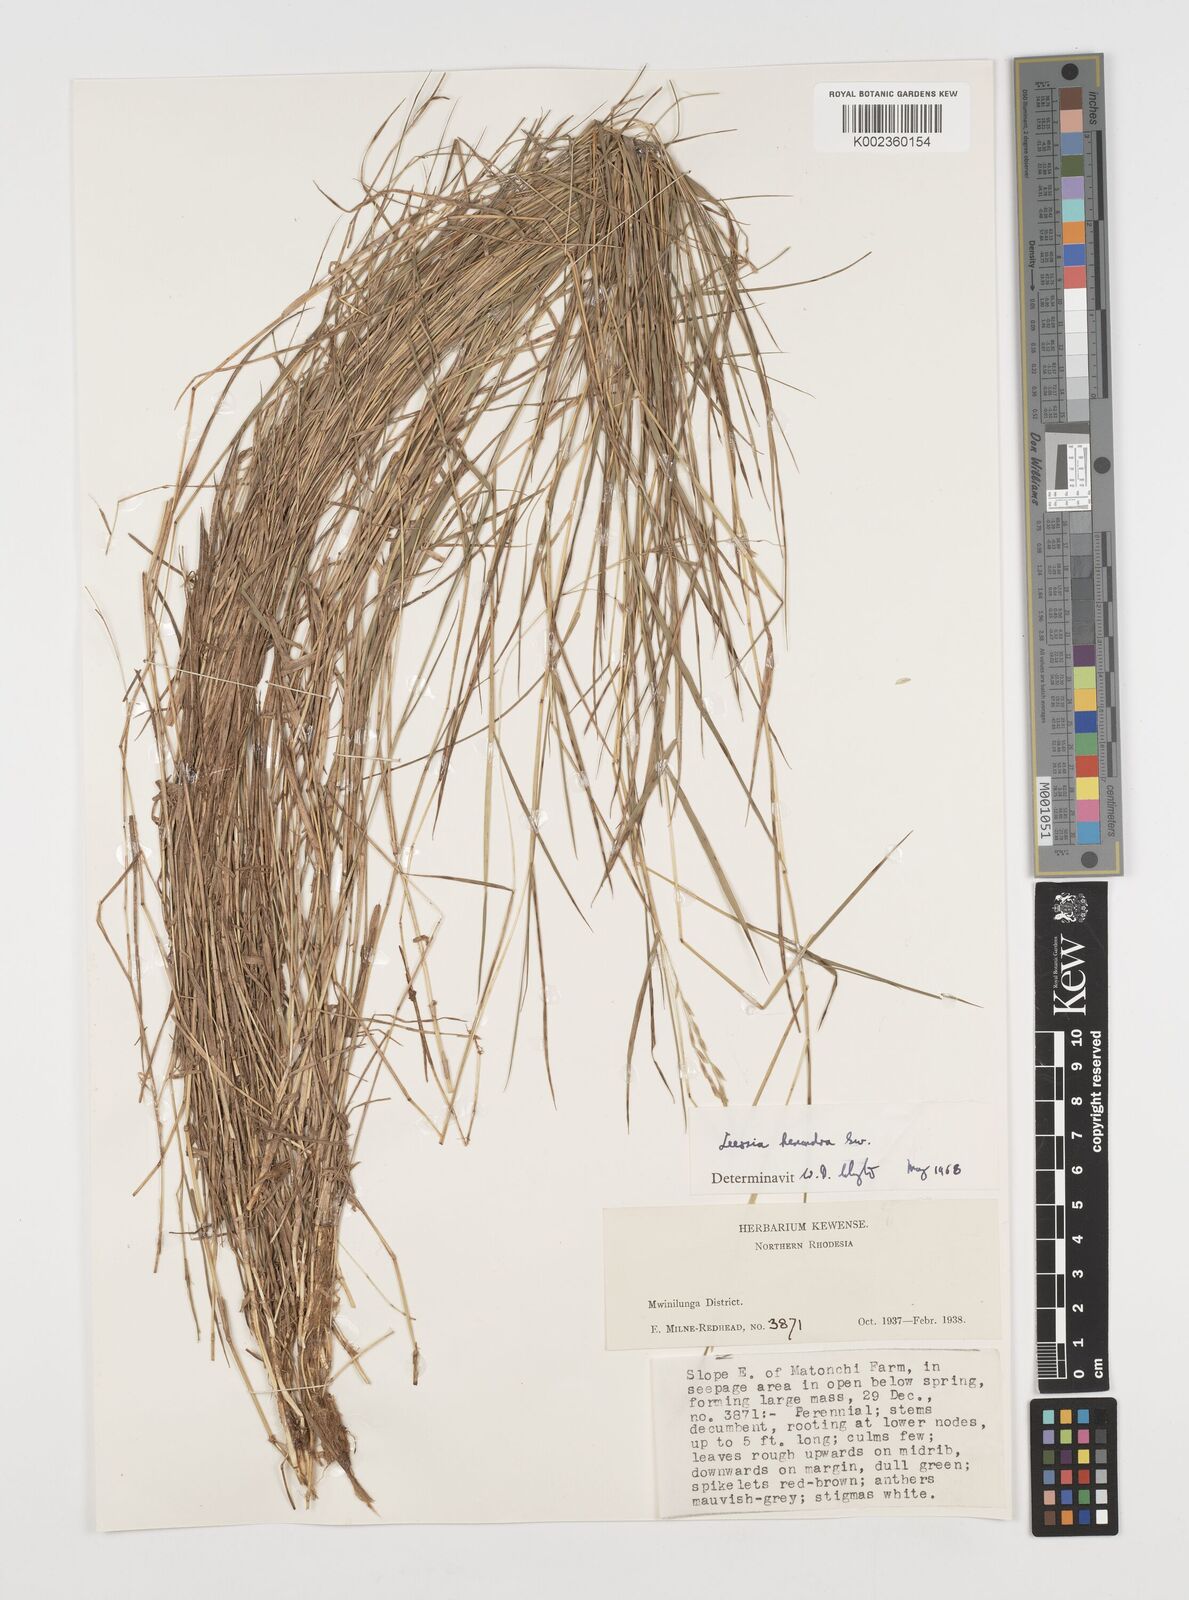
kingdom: Plantae
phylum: Tracheophyta
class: Liliopsida
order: Poales
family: Poaceae
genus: Leersia
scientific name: Leersia hexandra
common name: Southern cut grass
